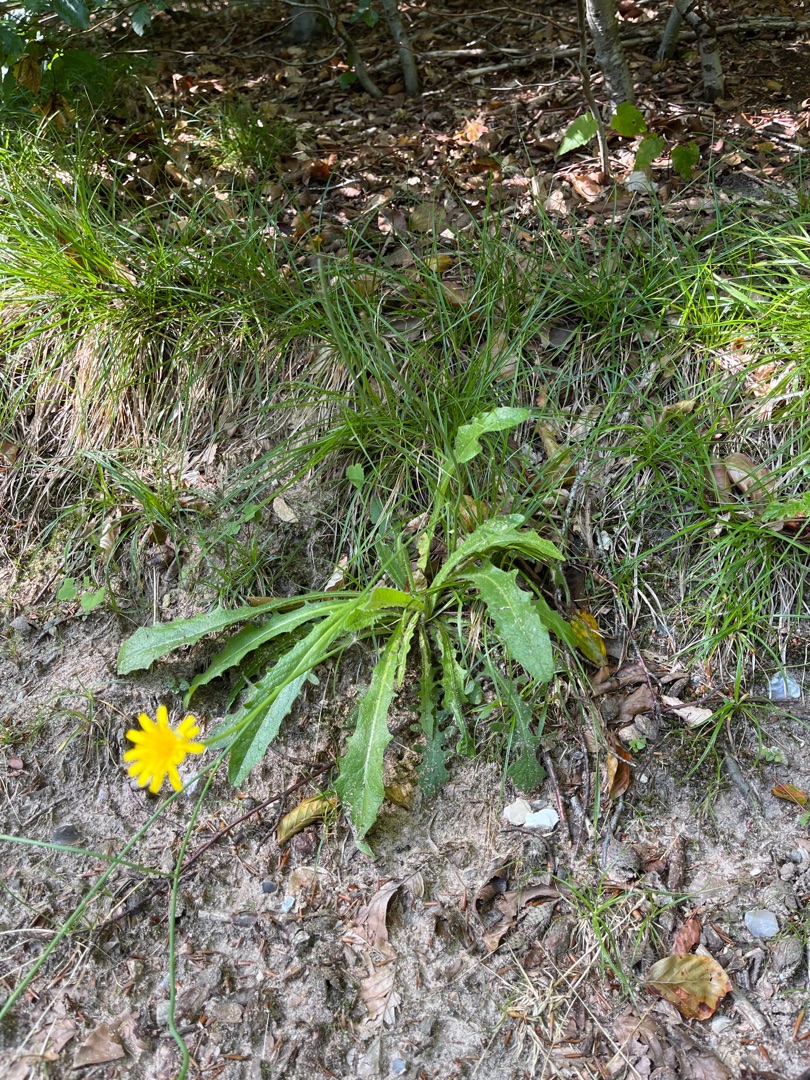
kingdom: Plantae
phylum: Tracheophyta
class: Magnoliopsida
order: Asterales
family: Asteraceae
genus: Hypochaeris
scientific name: Hypochaeris radicata
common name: Almindelig kongepen
